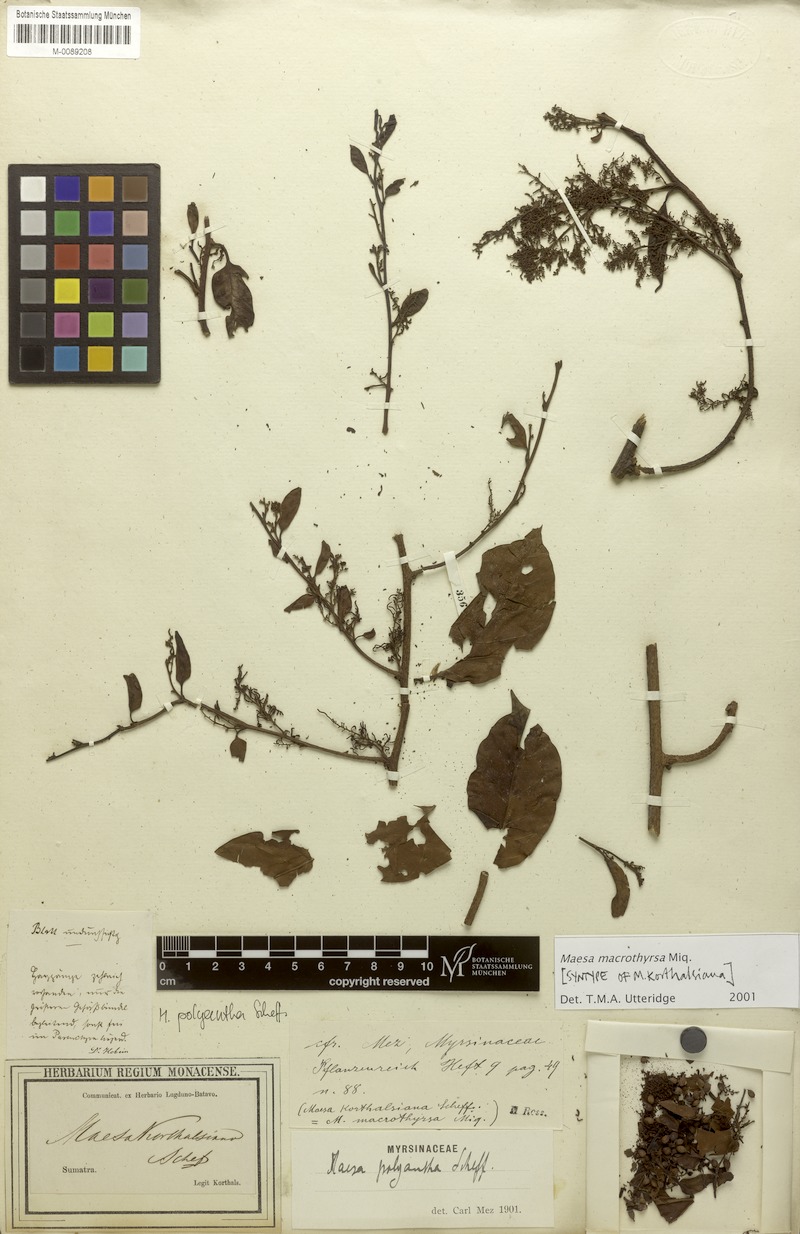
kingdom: Plantae
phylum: Tracheophyta
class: Magnoliopsida
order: Ericales
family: Primulaceae
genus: Maesa
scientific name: Maesa macrothyrsa
